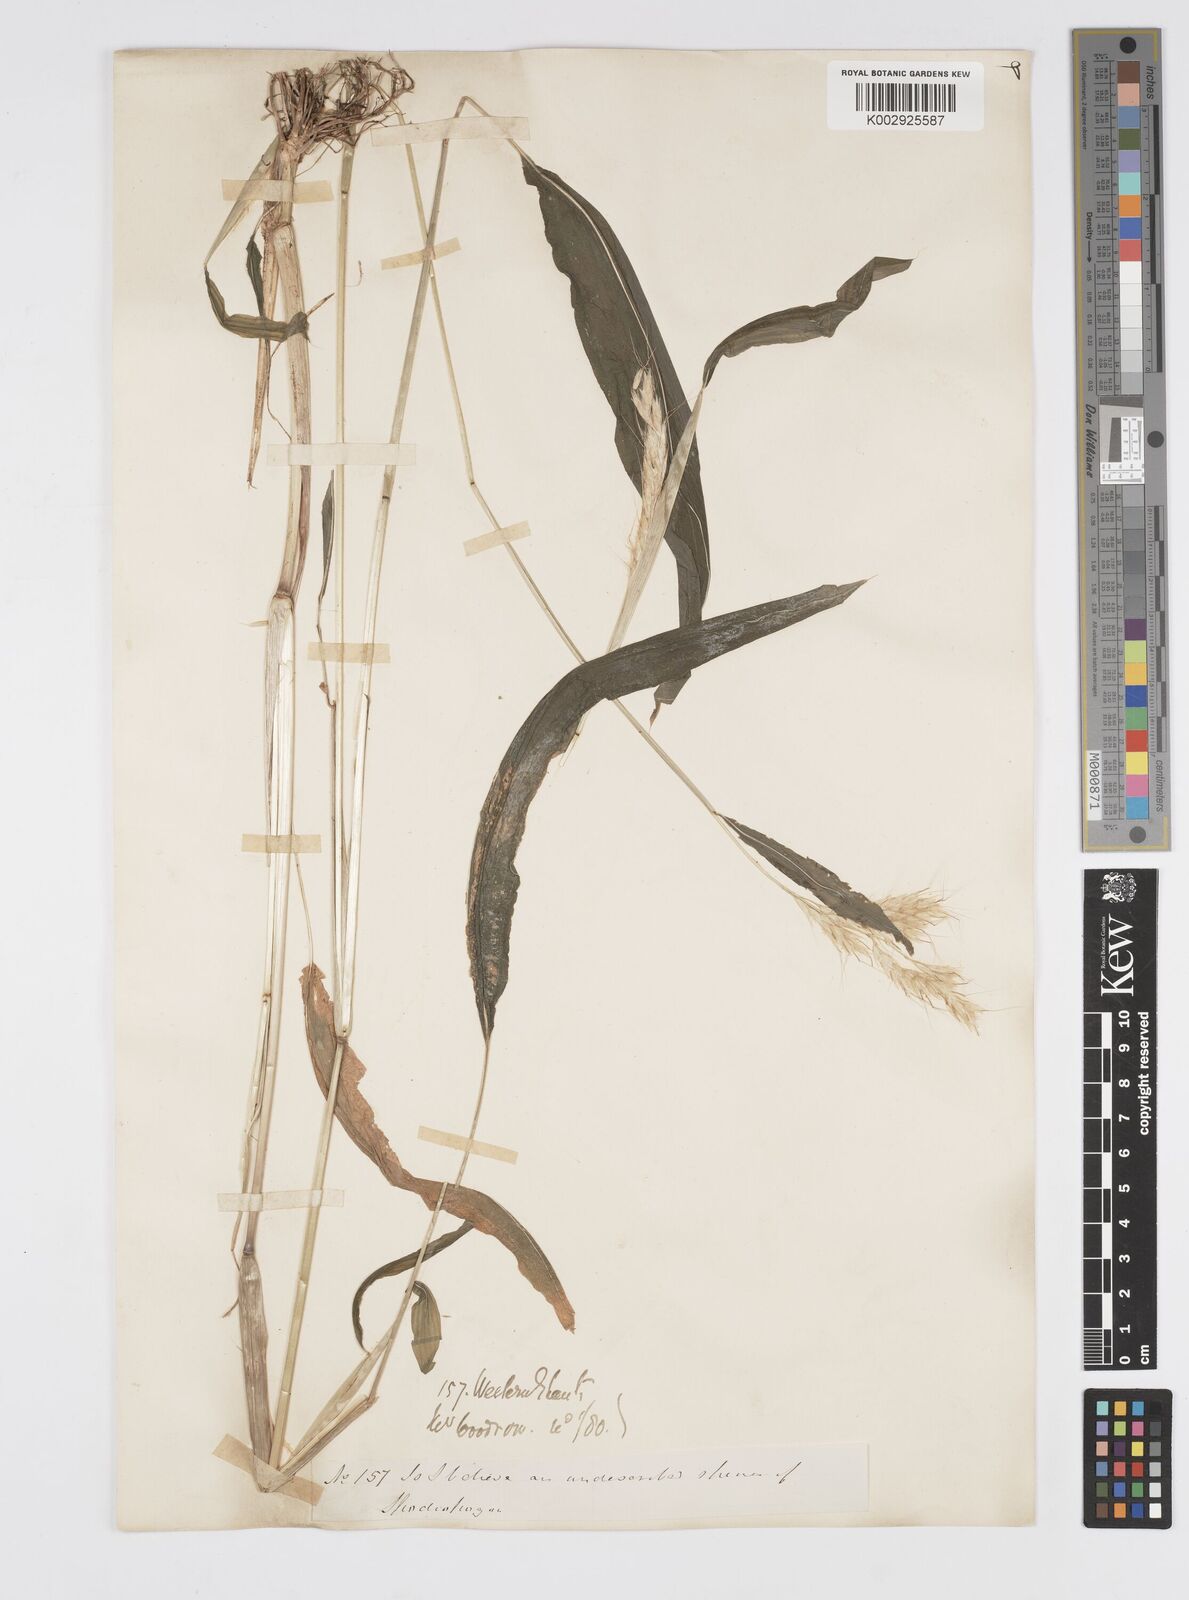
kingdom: Plantae
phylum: Tracheophyta
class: Liliopsida
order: Poales
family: Poaceae
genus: Spodiopogon
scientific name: Spodiopogon rhizophorus
